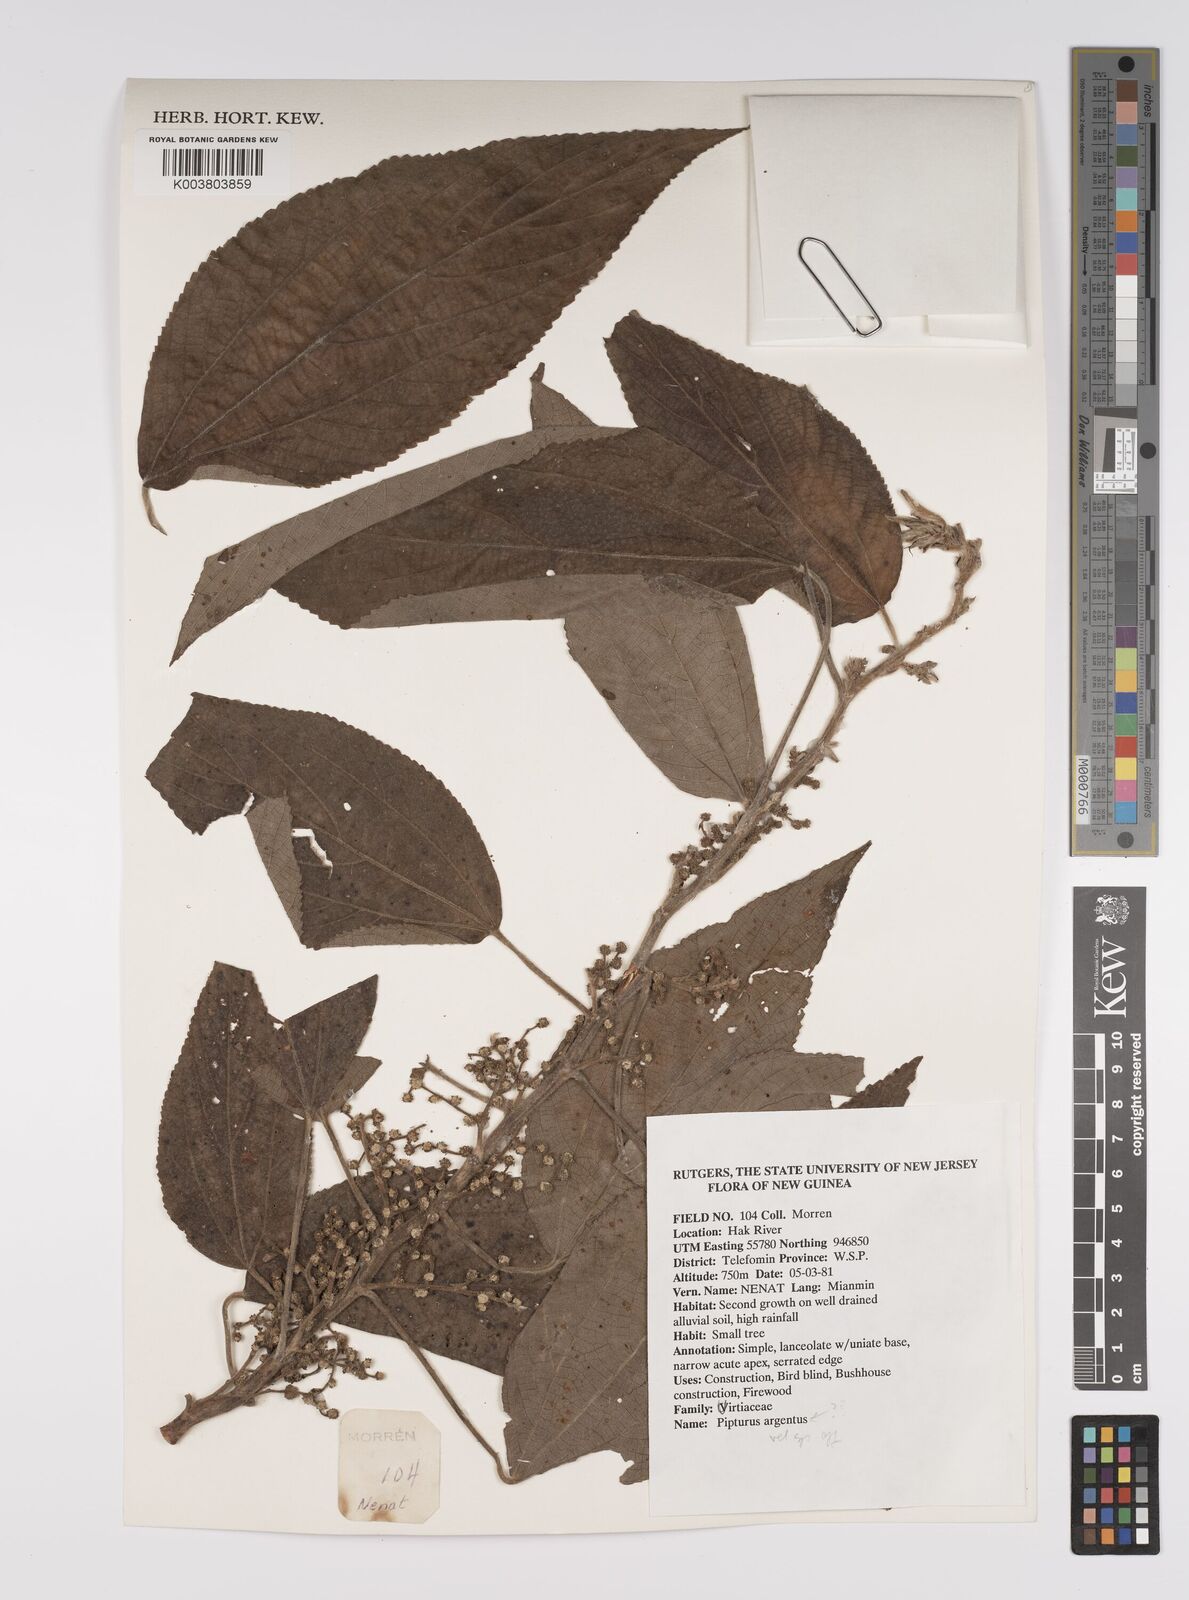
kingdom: Plantae
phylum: Tracheophyta
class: Magnoliopsida
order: Rosales
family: Urticaceae
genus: Pipturus
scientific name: Pipturus argenteus
